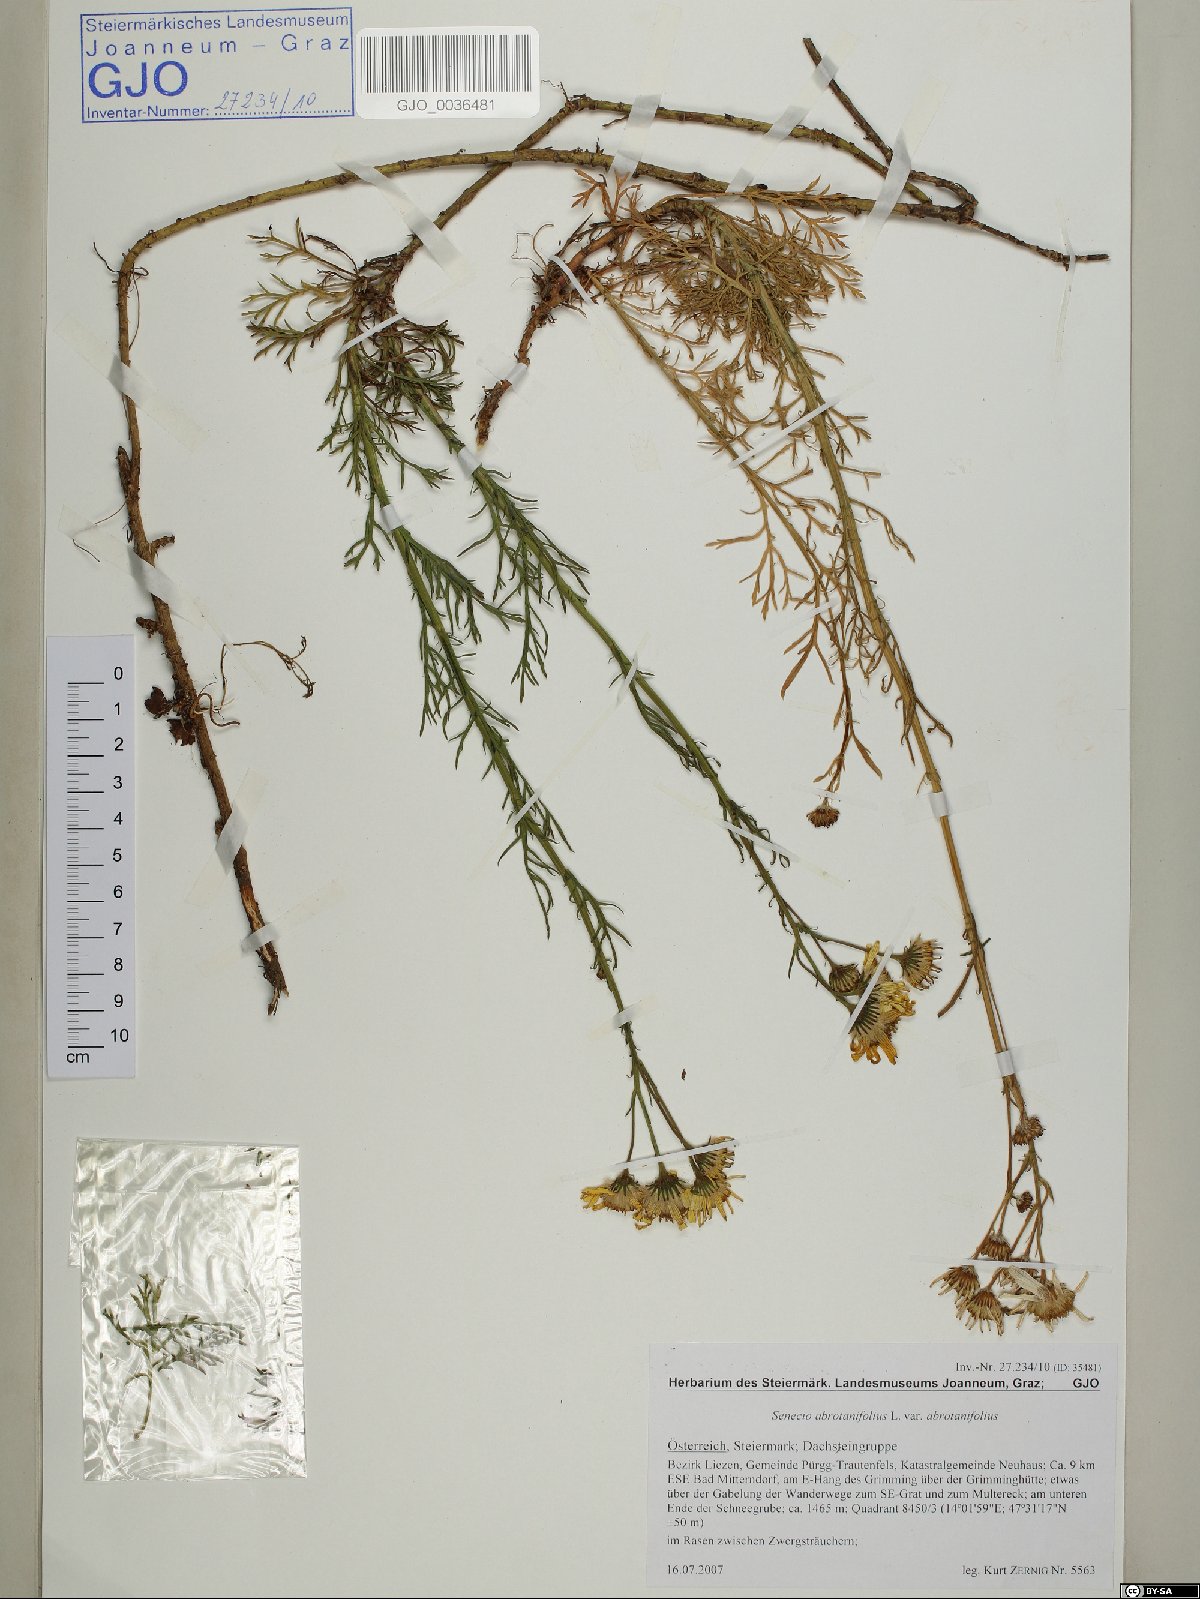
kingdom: Plantae
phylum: Tracheophyta
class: Magnoliopsida
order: Malpighiales
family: Salicaceae
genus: Salix
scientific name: Salix triandra
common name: Almond willow
